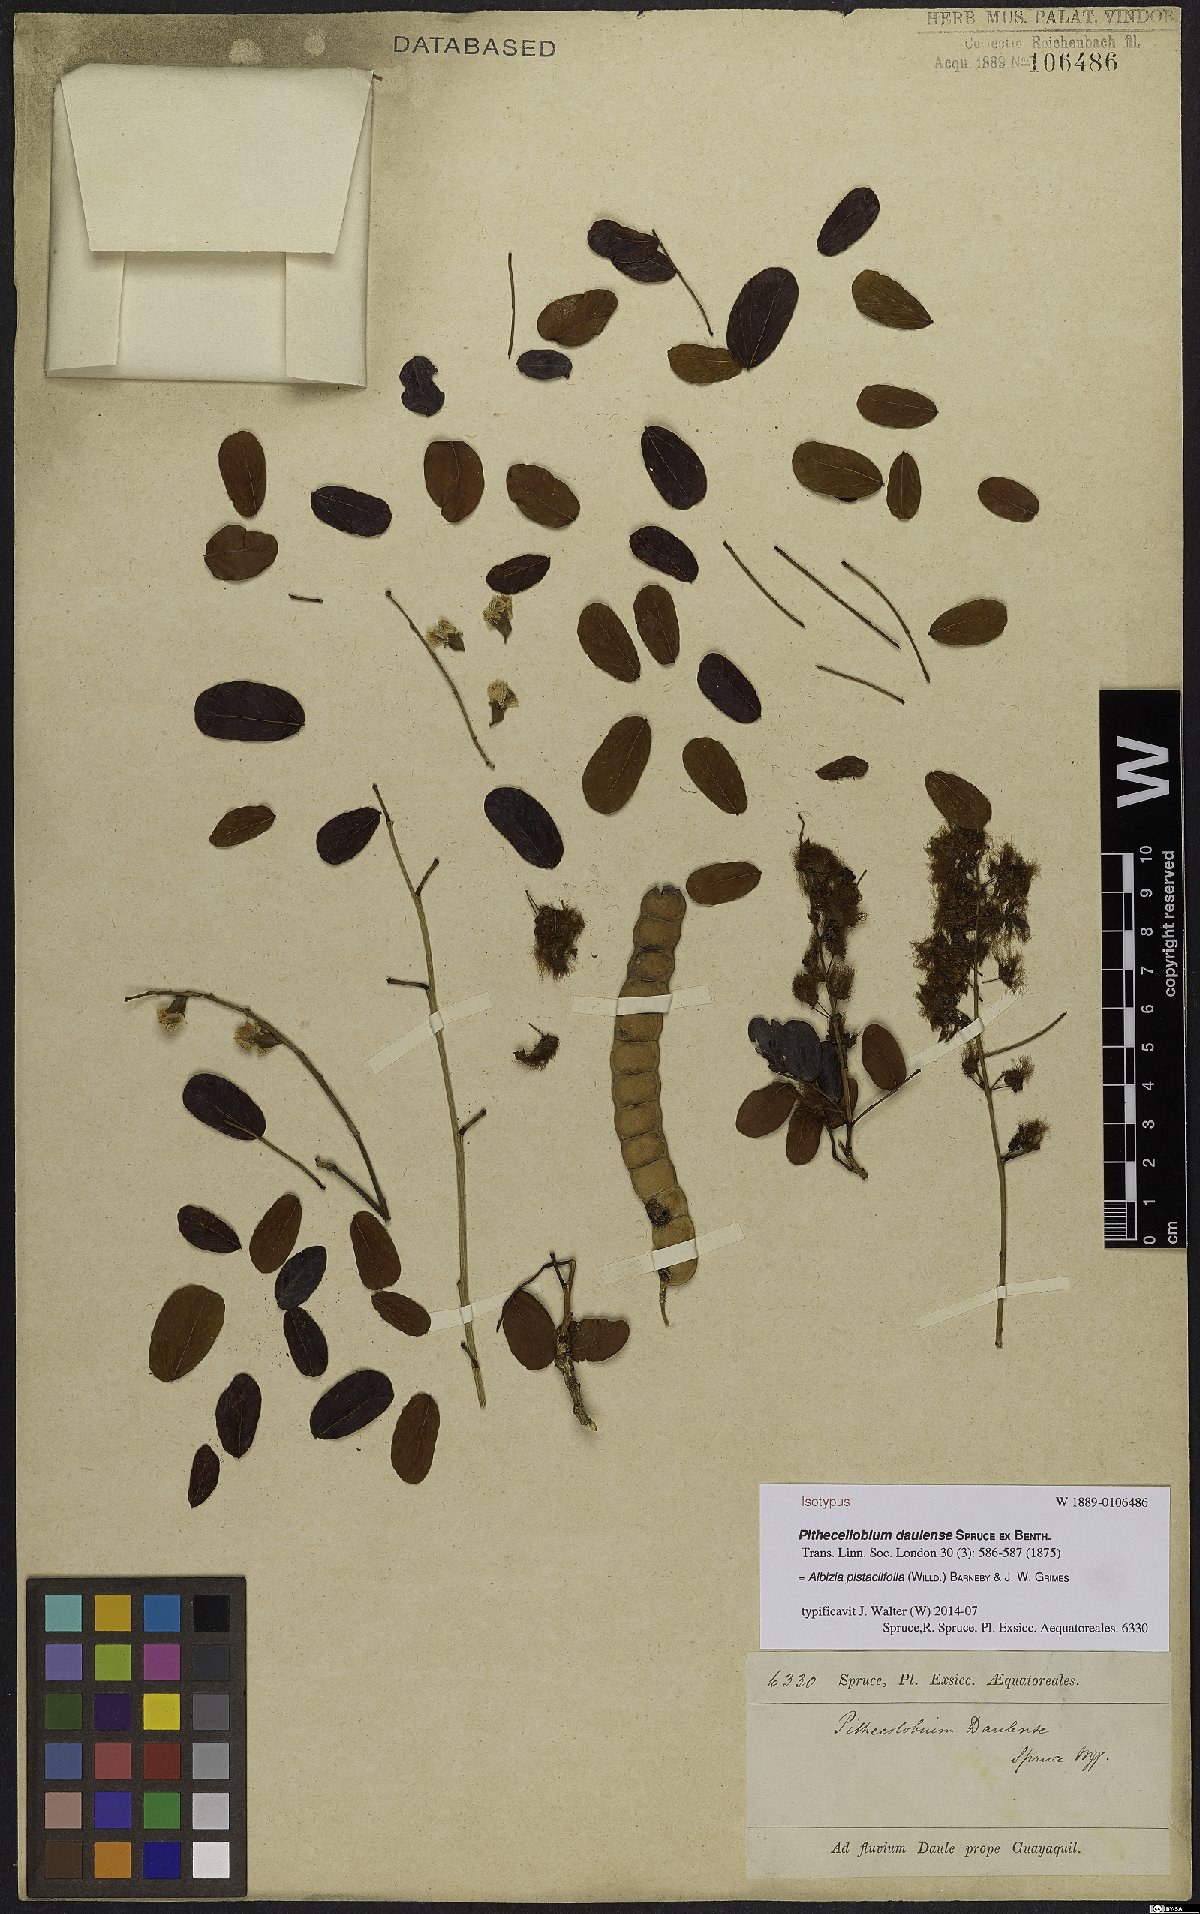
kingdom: Plantae
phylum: Tracheophyta
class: Magnoliopsida
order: Fabales
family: Fabaceae
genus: Albizia
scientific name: Albizia pistaciifolia
